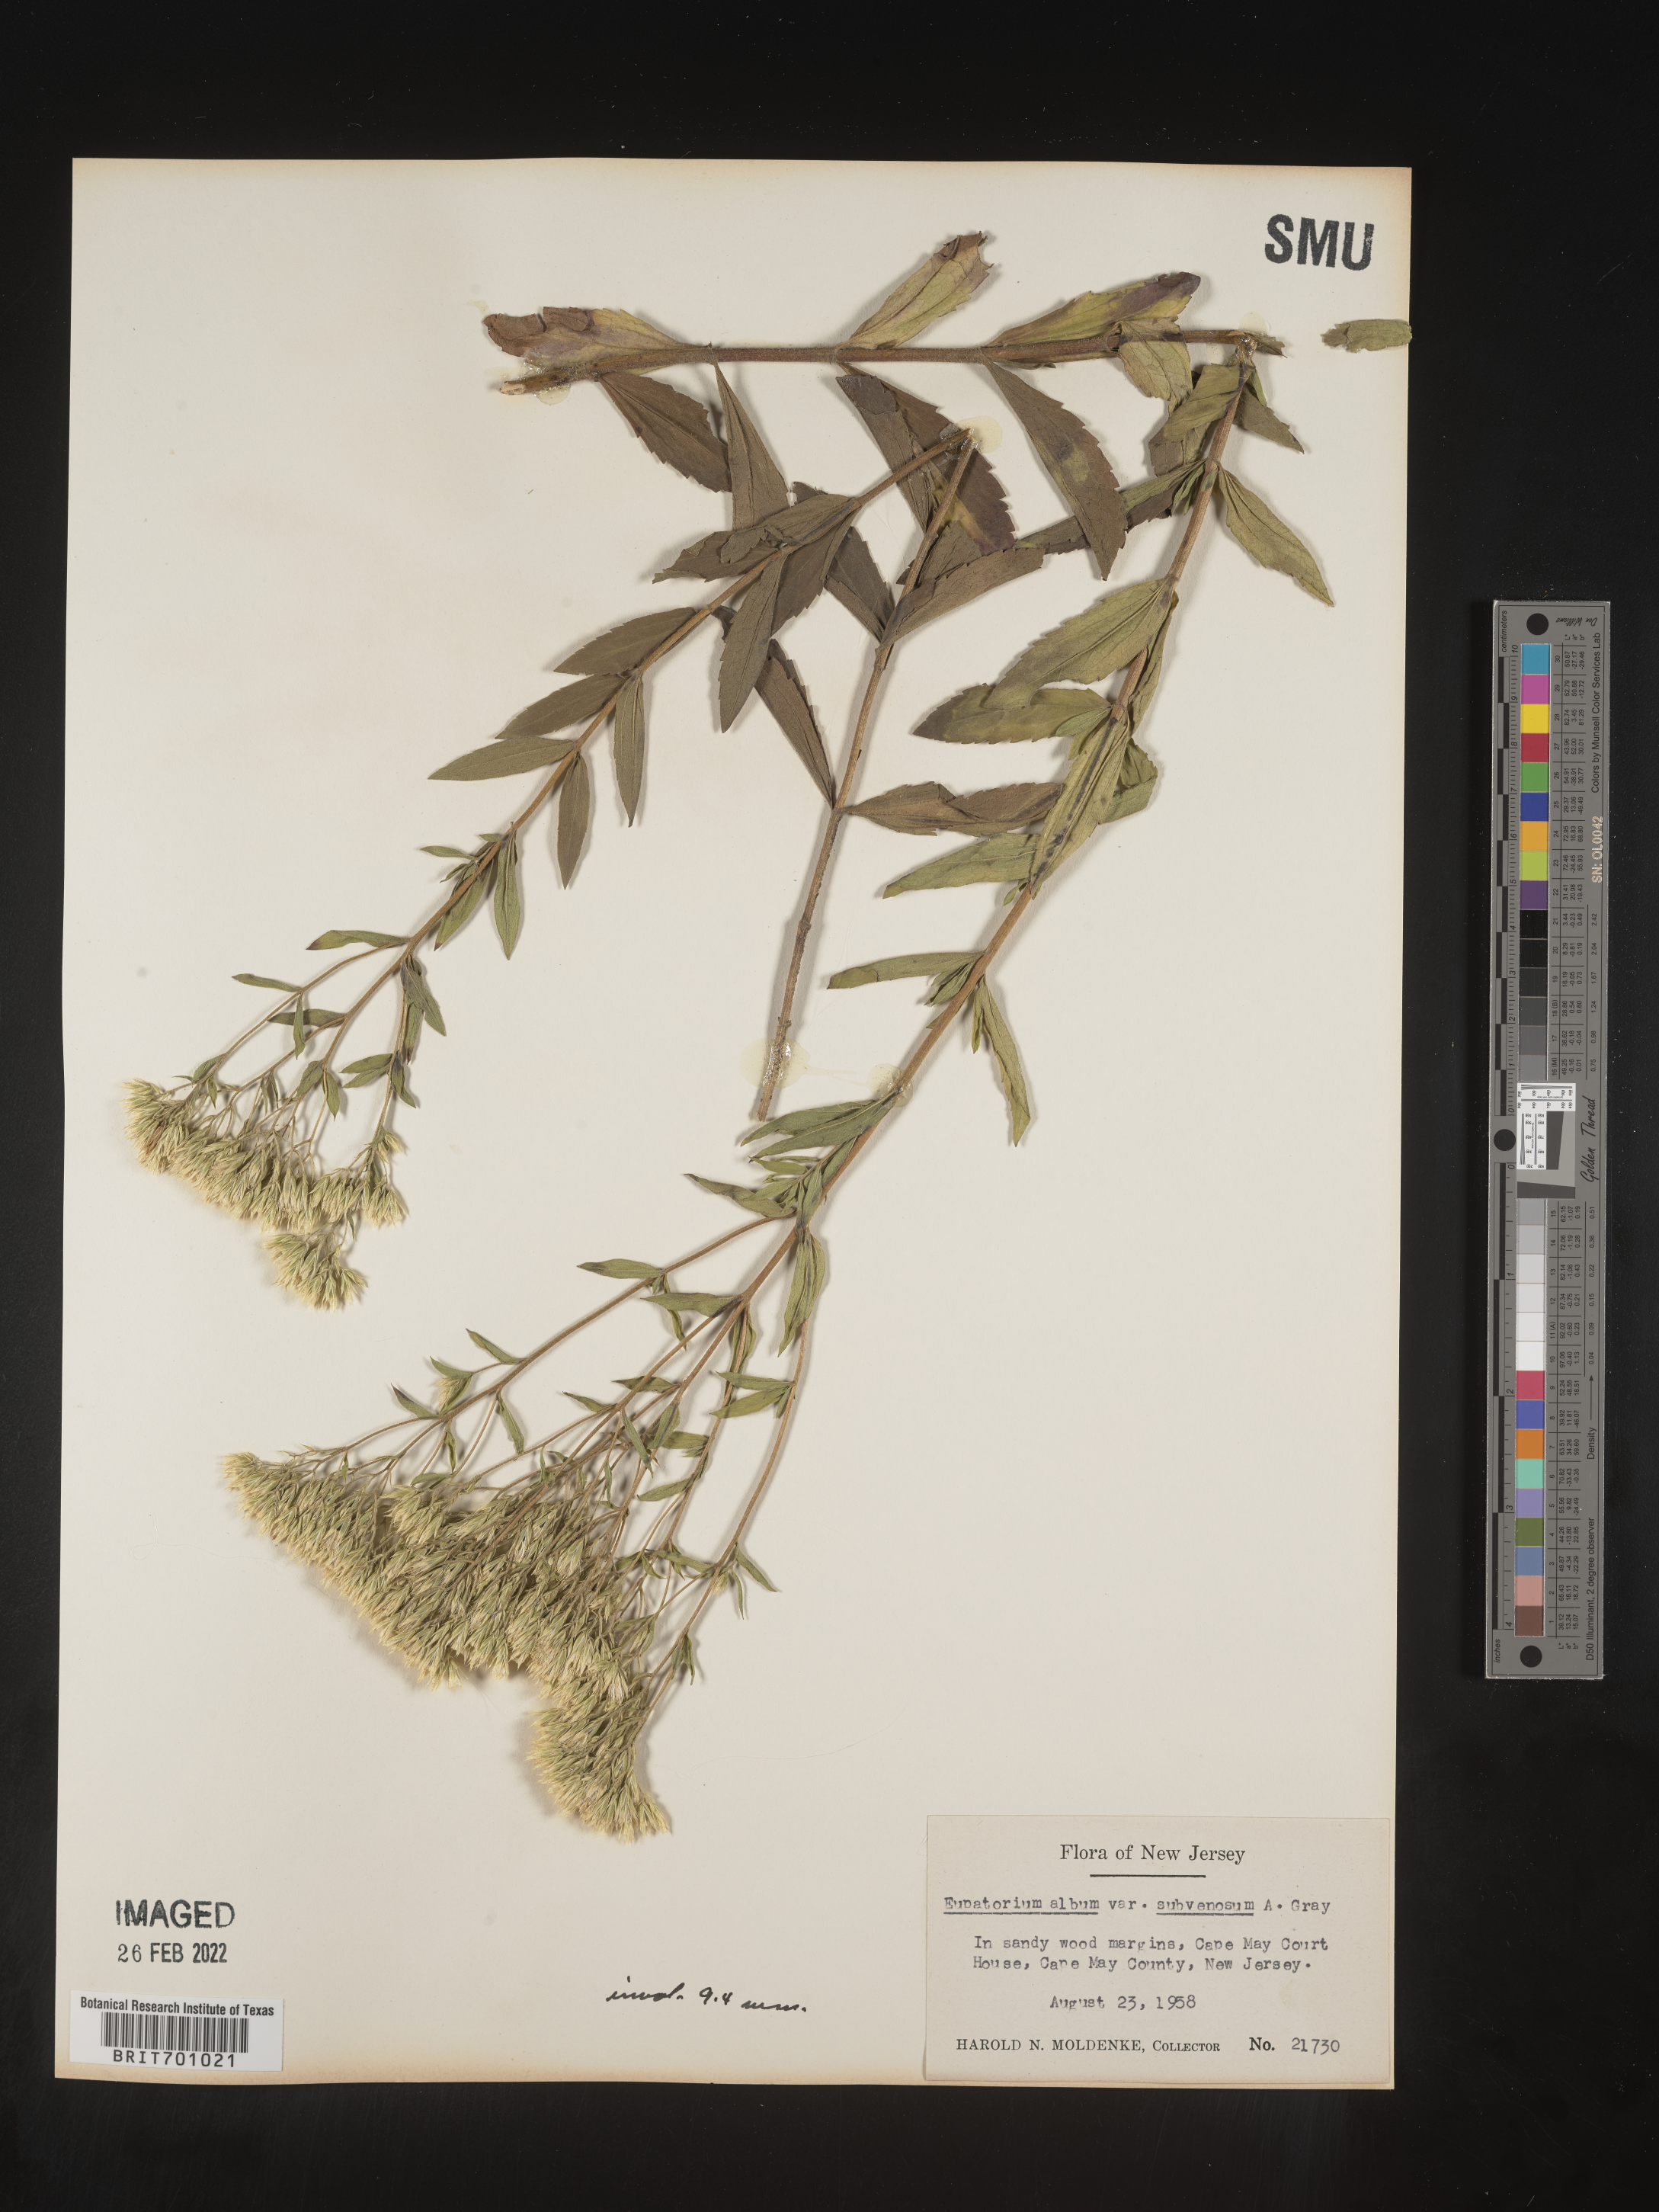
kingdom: Plantae
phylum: Tracheophyta
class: Magnoliopsida
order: Asterales
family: Asteraceae
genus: Eupatorium
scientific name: Eupatorium album
